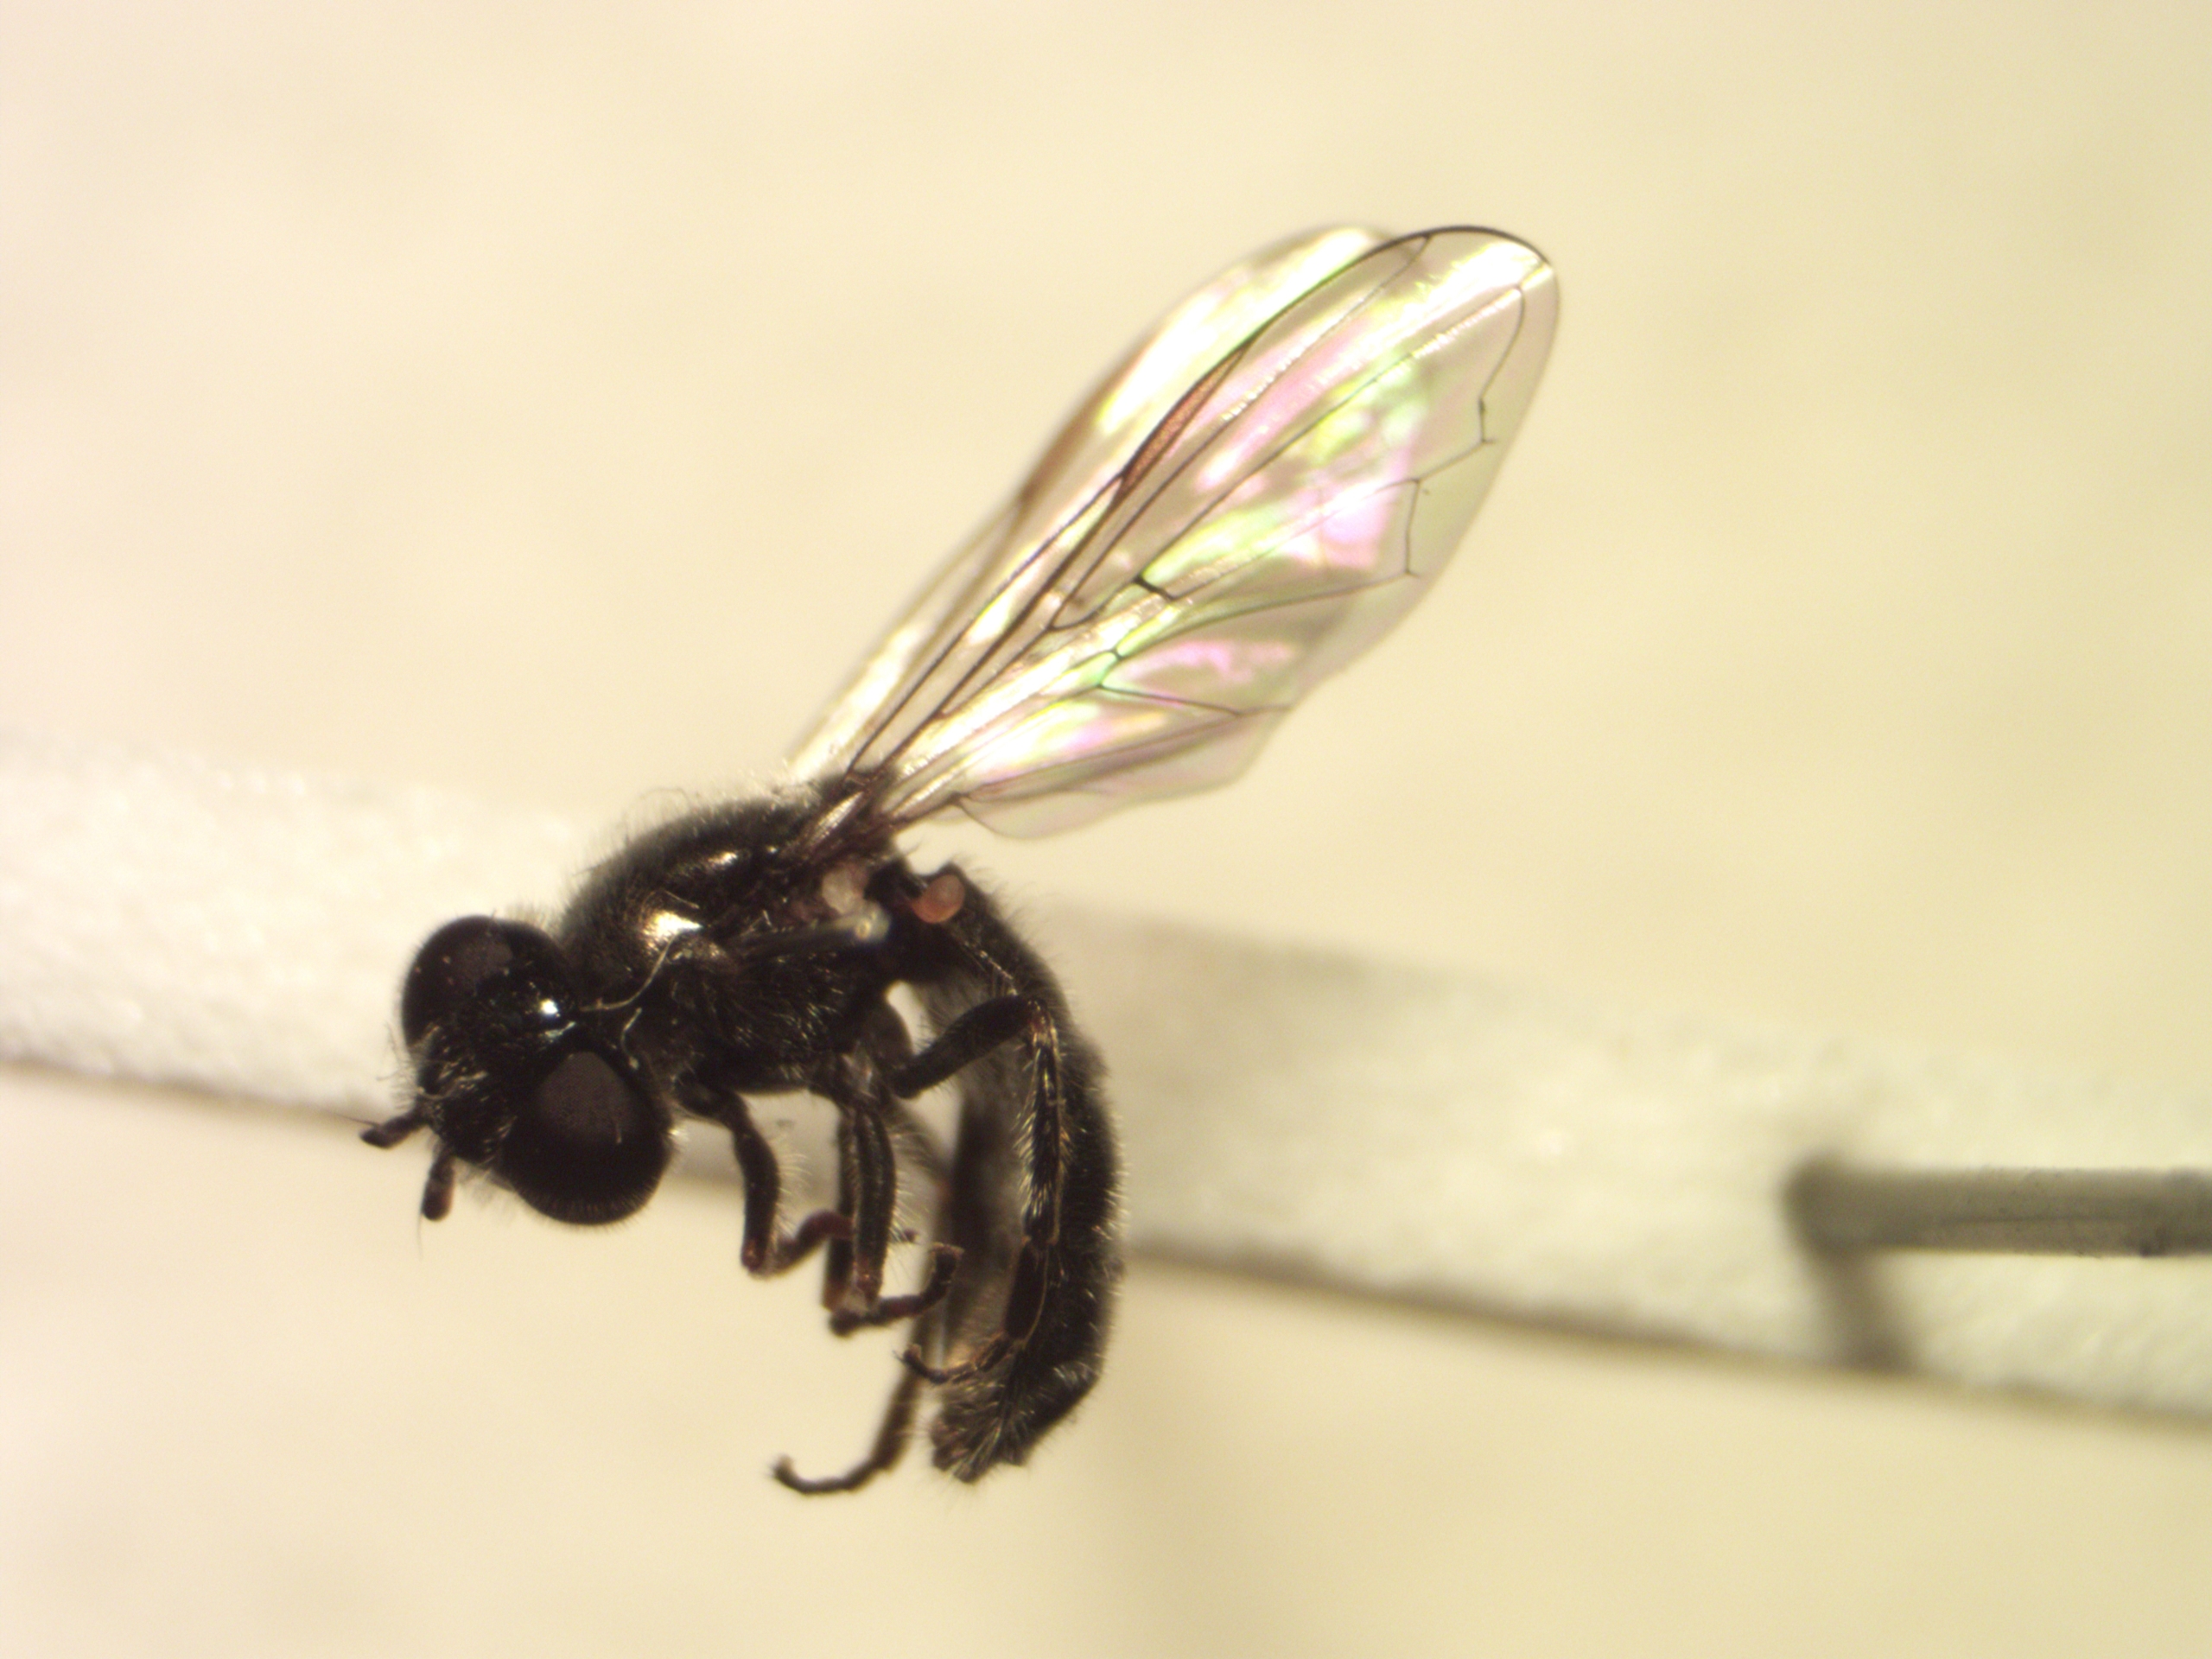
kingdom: Animalia
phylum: Arthropoda
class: Insecta
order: Diptera
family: Syrphidae
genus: Neocnemodon
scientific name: Neocnemodon latitarsis
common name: Bredfodet sporesvirreflue
